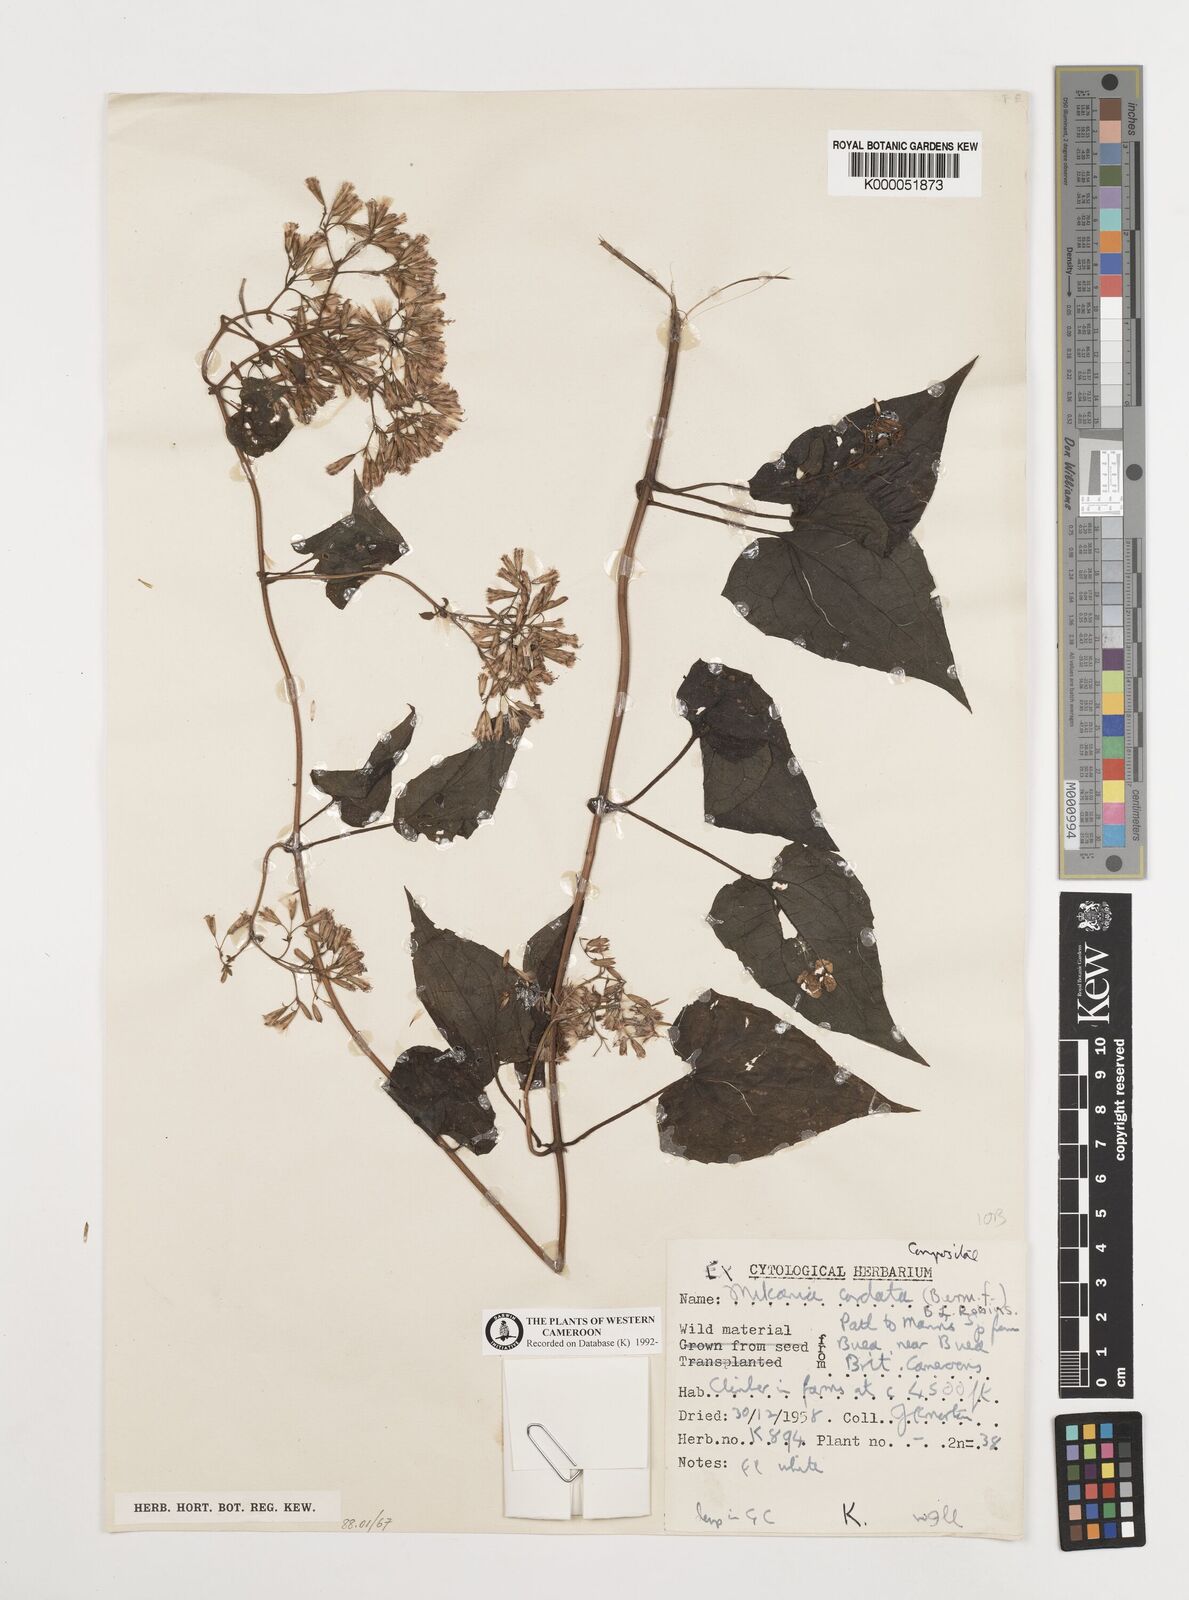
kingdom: Plantae
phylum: Tracheophyta
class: Magnoliopsida
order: Asterales
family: Asteraceae
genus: Mikania
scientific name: Mikania cordata
